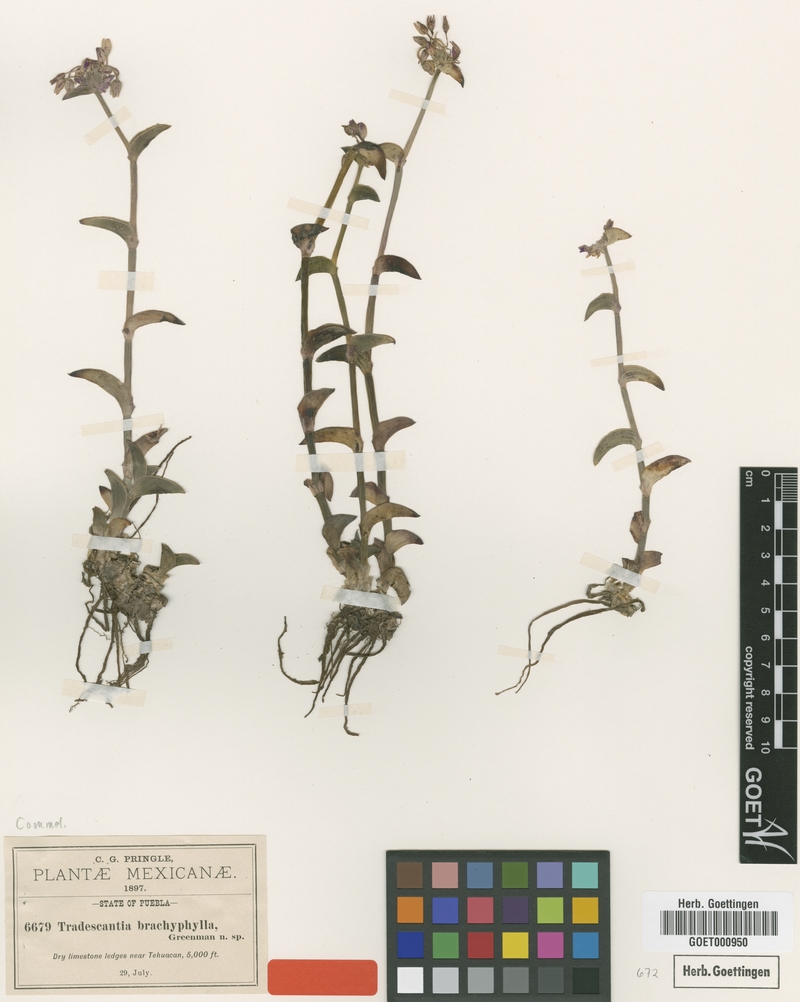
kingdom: Plantae
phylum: Tracheophyta
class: Liliopsida
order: Commelinales
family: Commelinaceae
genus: Callisia
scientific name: Callisia navicularis
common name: Chainplant
